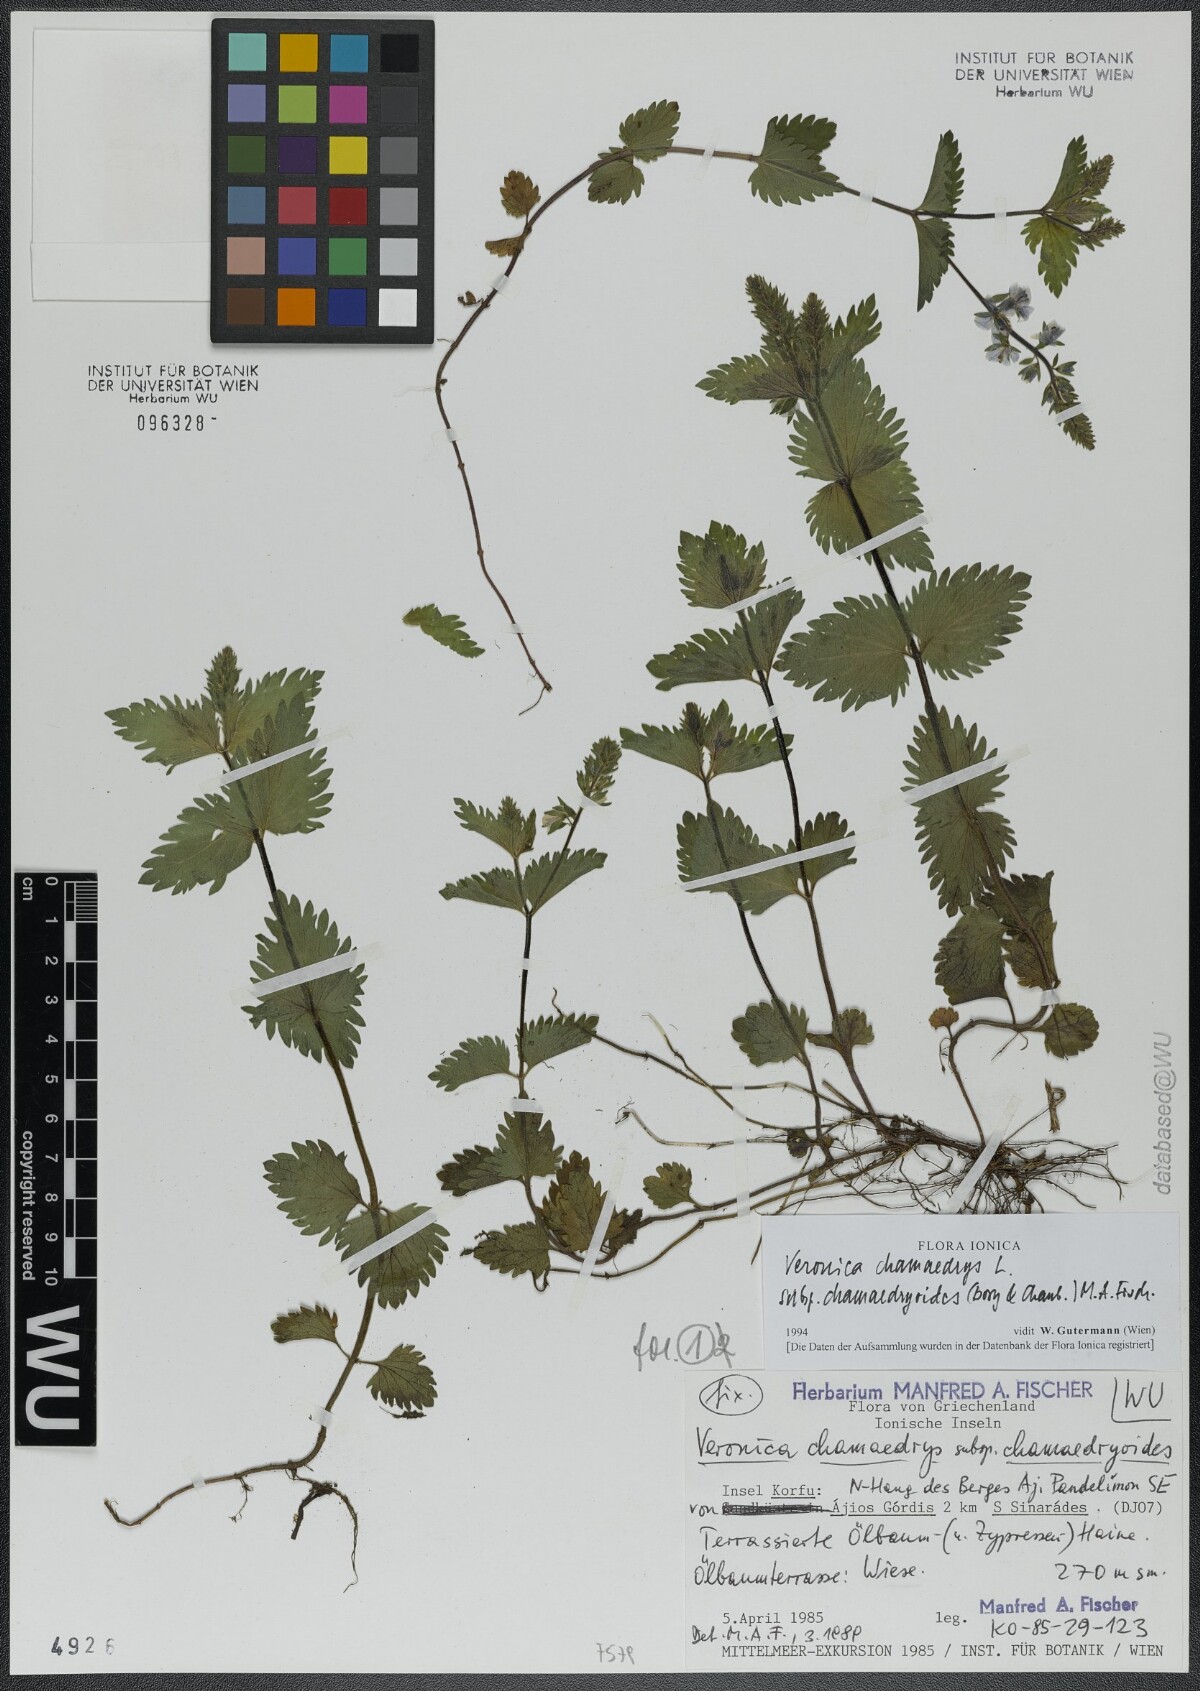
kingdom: Plantae
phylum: Tracheophyta
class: Magnoliopsida
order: Lamiales
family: Plantaginaceae
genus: Veronica
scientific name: Veronica chamaedrys
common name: Germander speedwell
